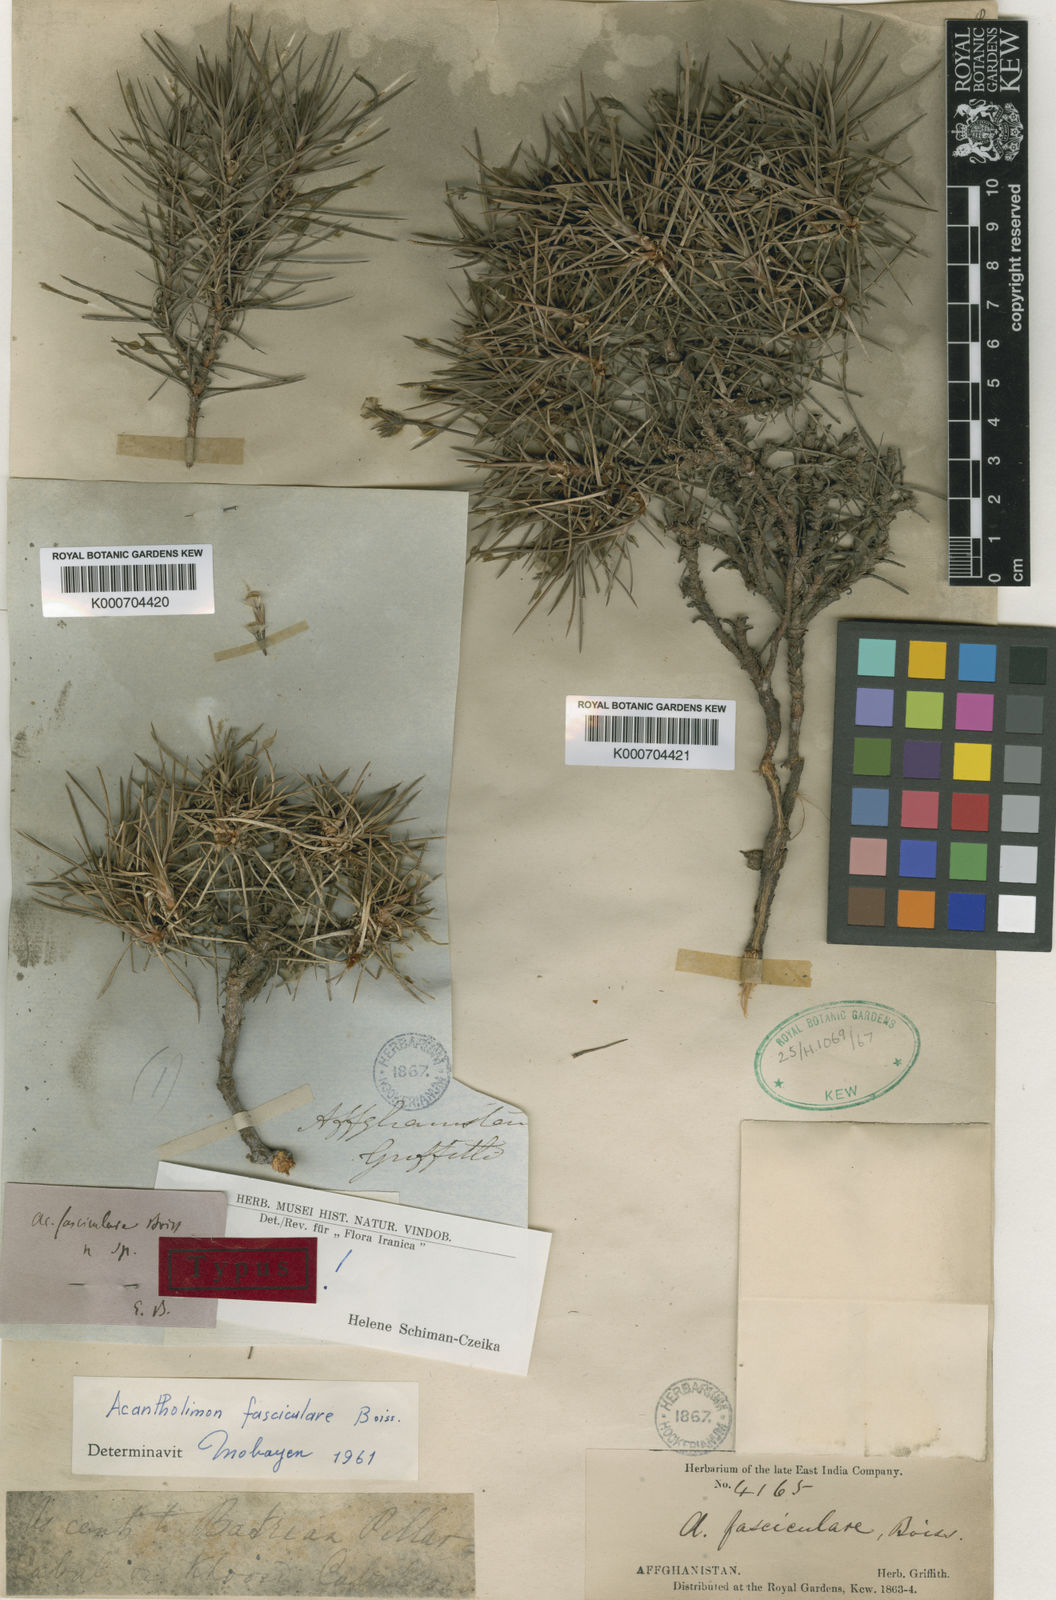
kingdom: Plantae
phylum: Tracheophyta
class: Magnoliopsida
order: Caryophyllales
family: Plumbaginaceae
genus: Acantholimon
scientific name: Acantholimon fasciculare
